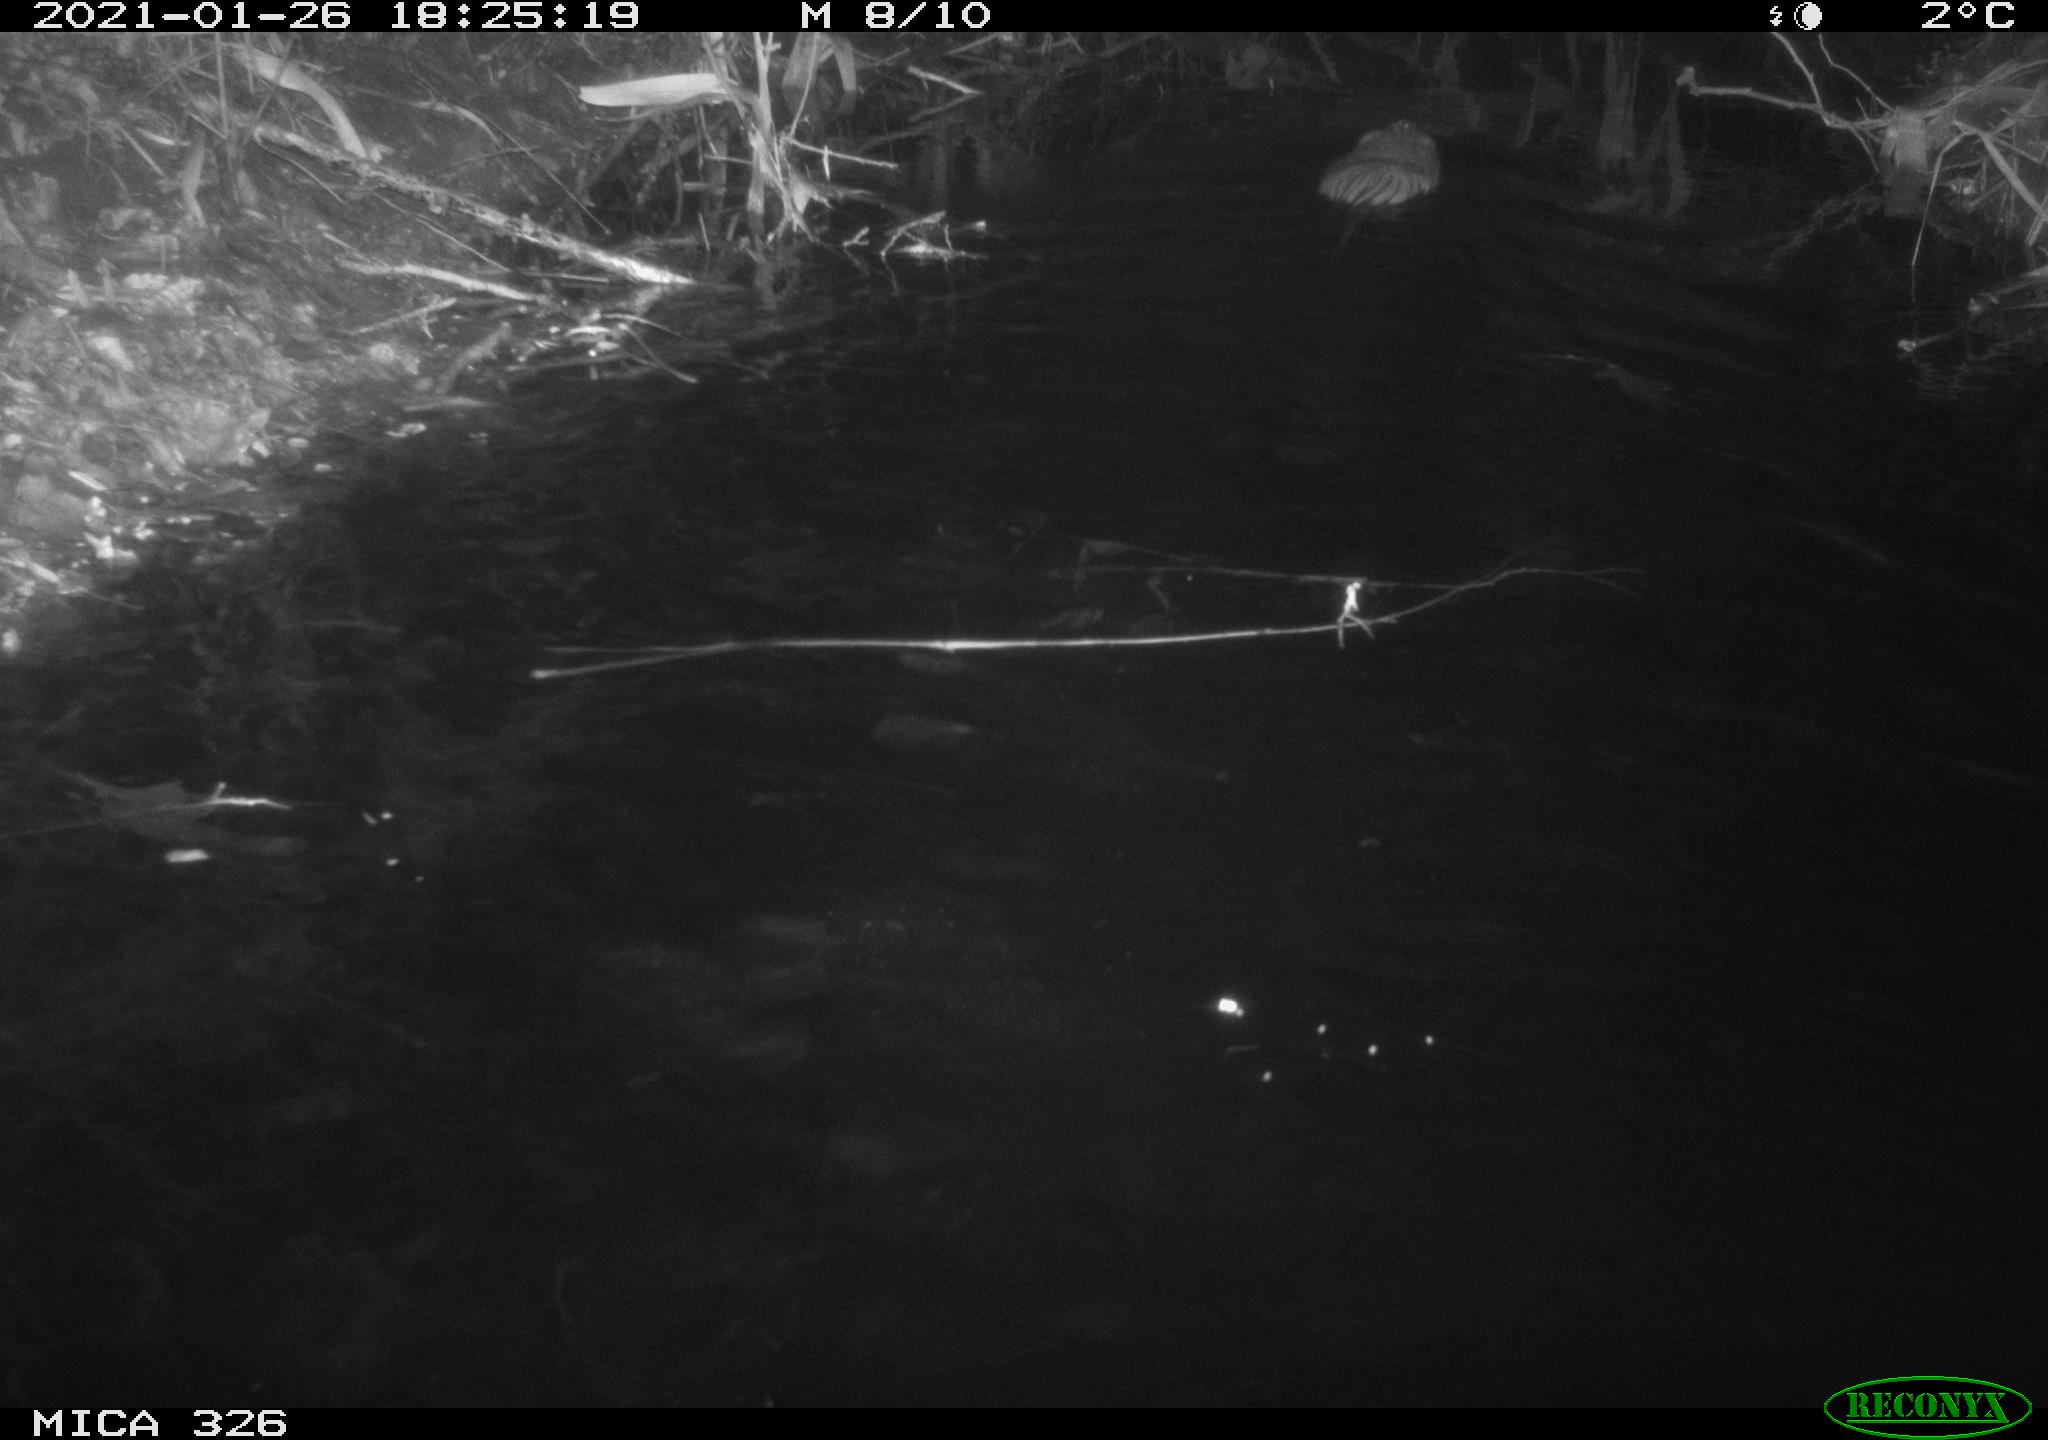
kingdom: Animalia
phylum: Chordata
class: Mammalia
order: Rodentia
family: Cricetidae
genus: Ondatra
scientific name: Ondatra zibethicus
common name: Muskrat
